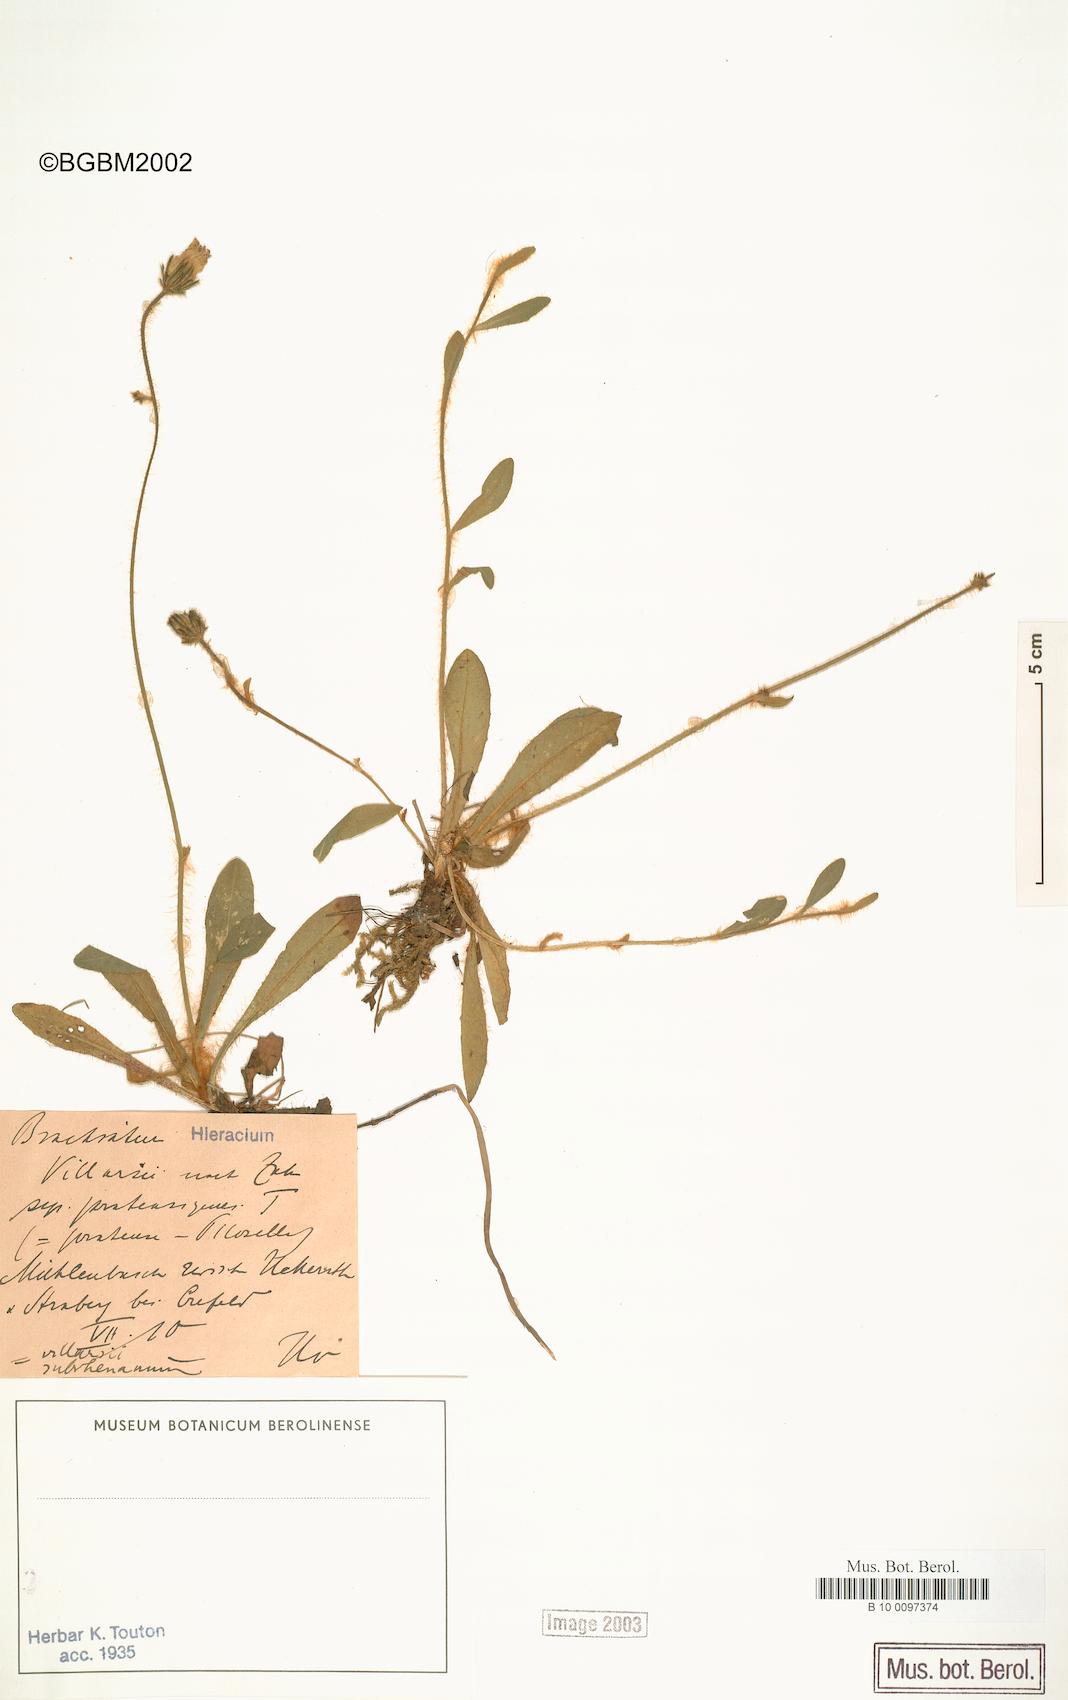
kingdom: Plantae
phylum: Tracheophyta
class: Magnoliopsida
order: Asterales
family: Asteraceae
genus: Pilosella
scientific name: Pilosella acutifolia
